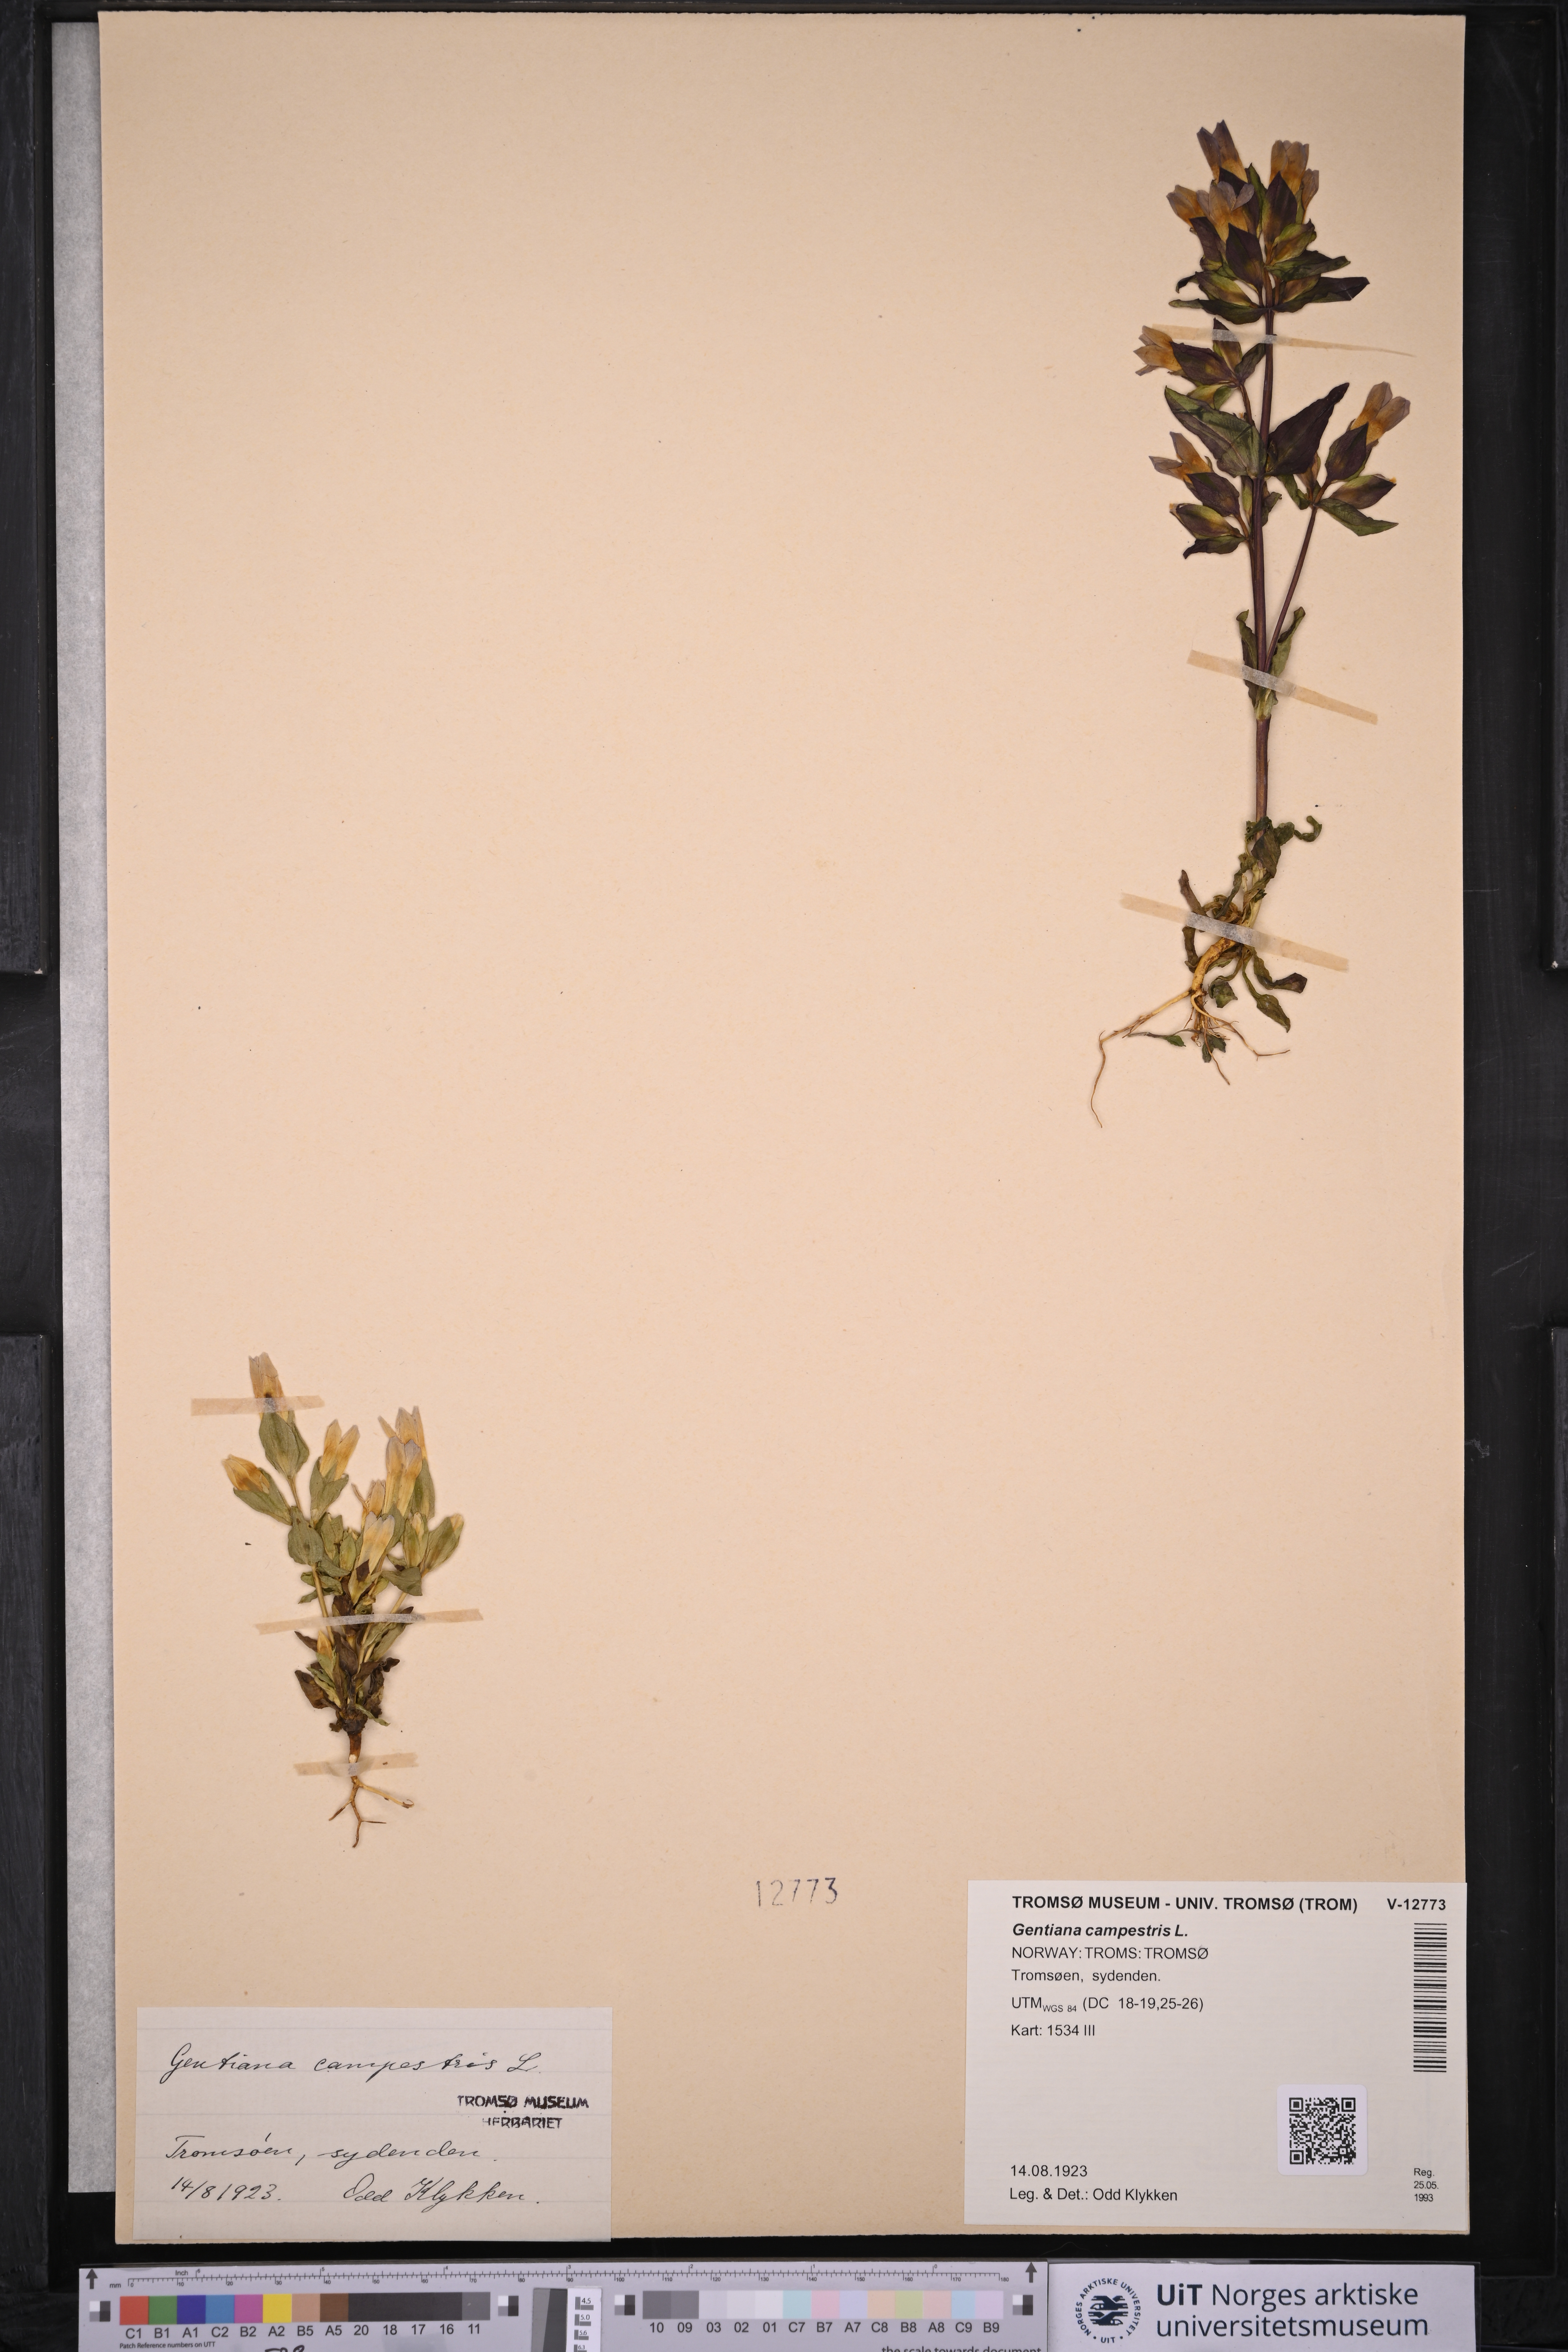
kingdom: Plantae
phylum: Tracheophyta
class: Magnoliopsida
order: Gentianales
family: Gentianaceae
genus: Gentianella
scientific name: Gentianella campestris
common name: Field gentian
